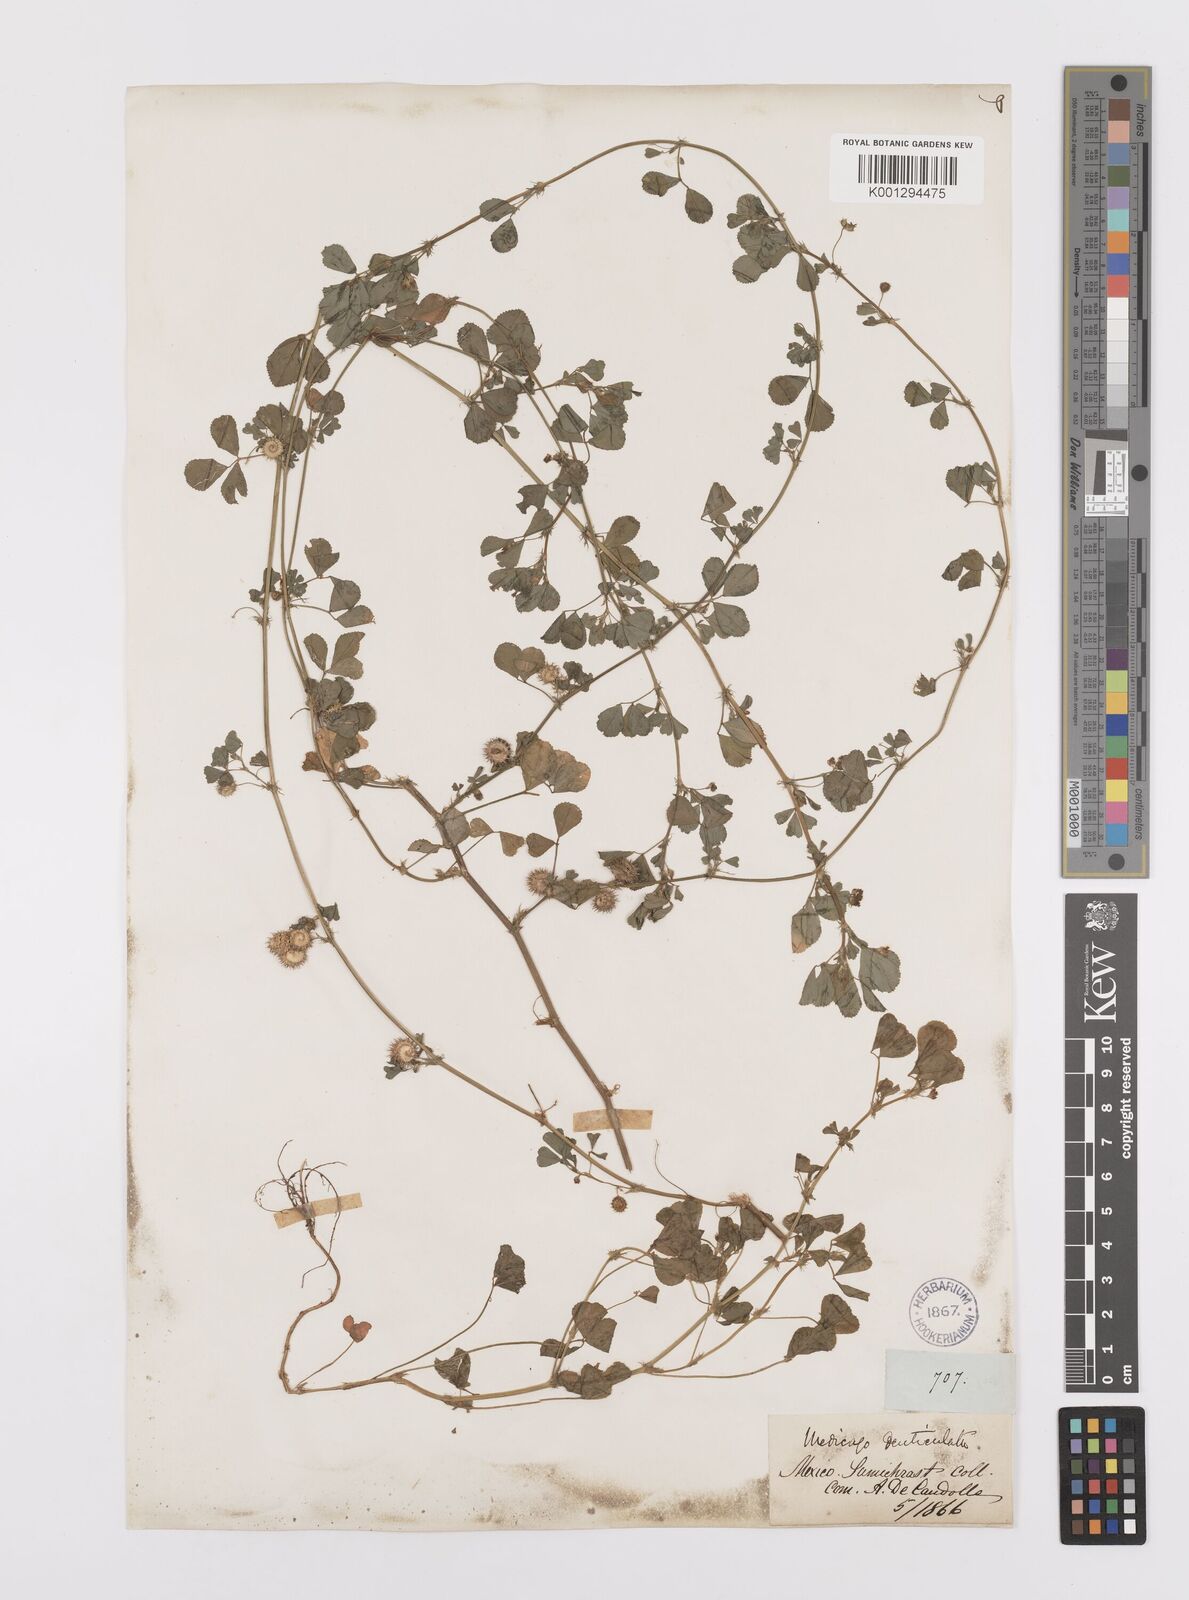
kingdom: Plantae
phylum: Tracheophyta
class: Magnoliopsida
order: Fabales
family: Fabaceae
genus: Medicago
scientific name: Medicago polymorpha
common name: Burclover
